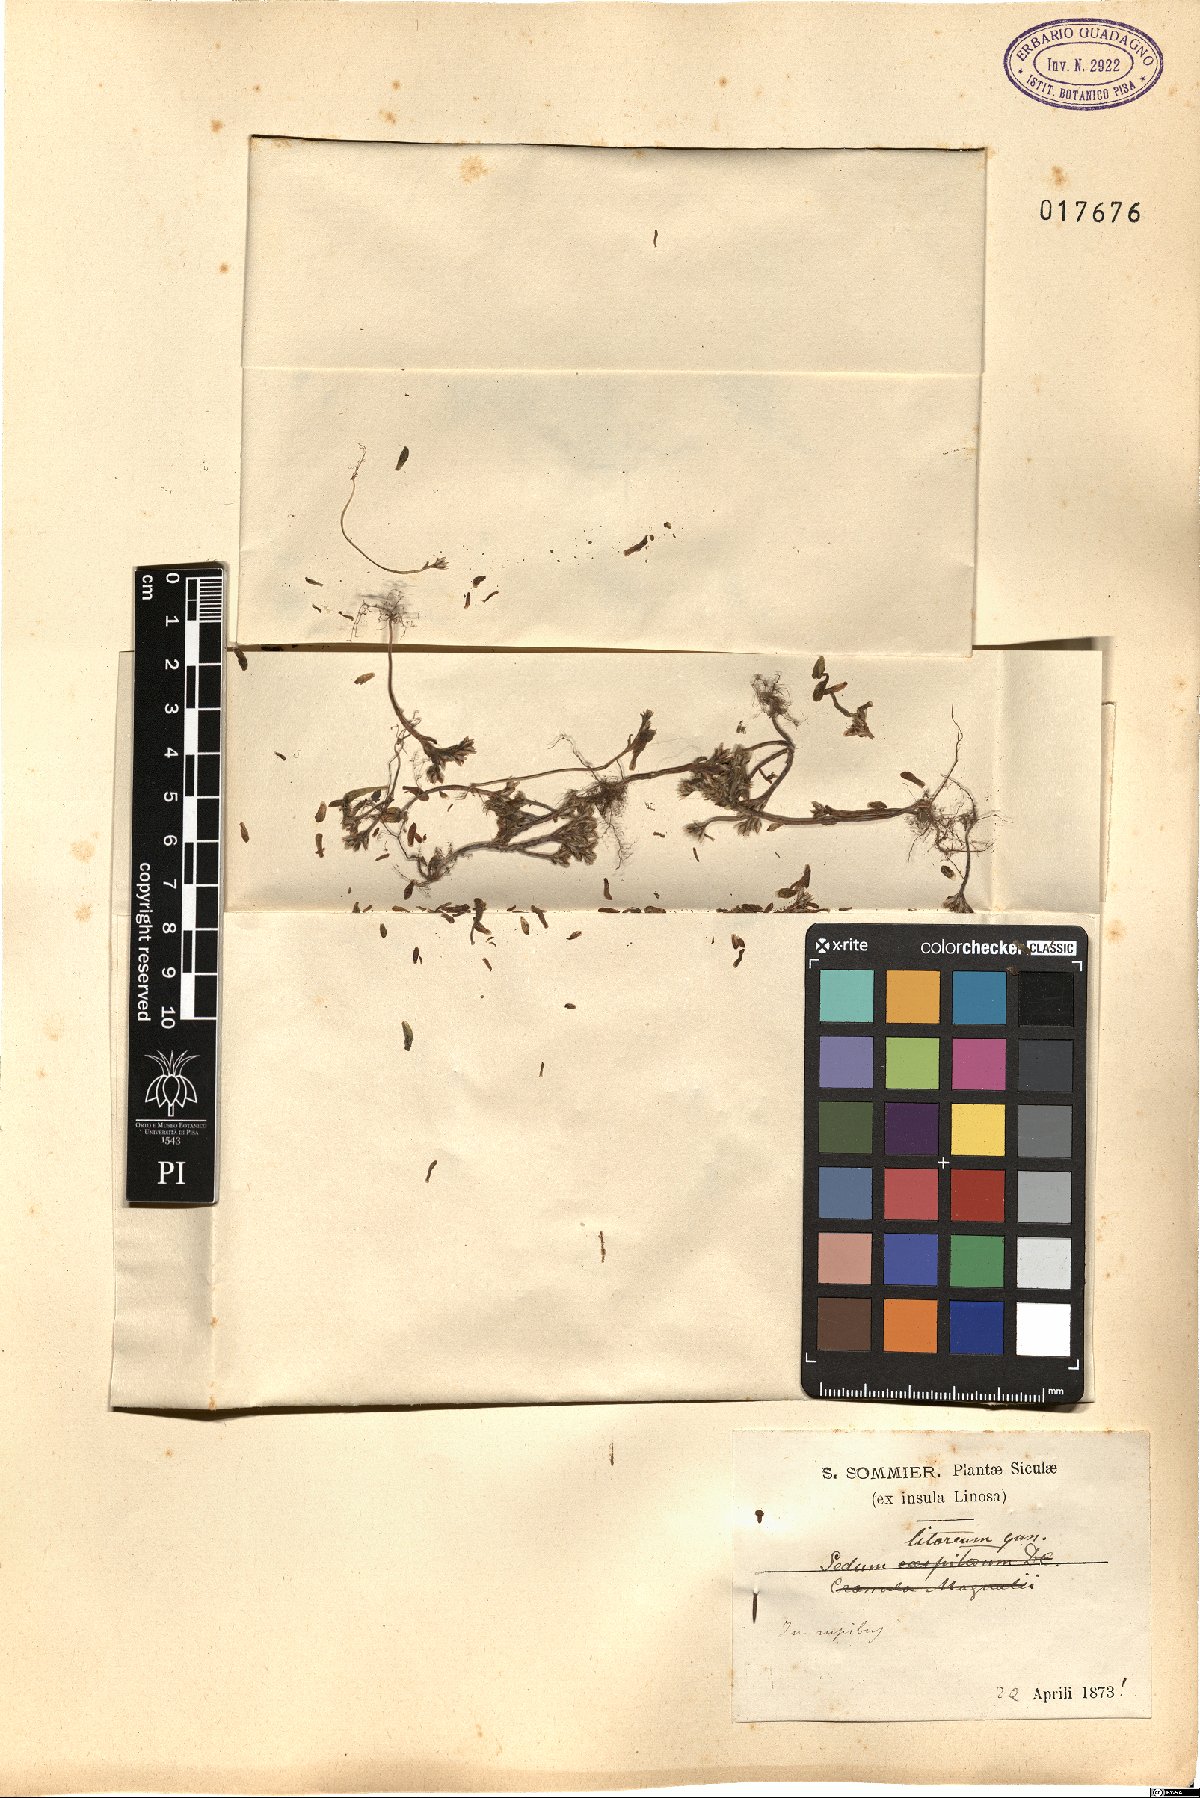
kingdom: Plantae
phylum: Tracheophyta
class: Magnoliopsida
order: Saxifragales
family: Crassulaceae
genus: Sedum
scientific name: Sedum litoreum
